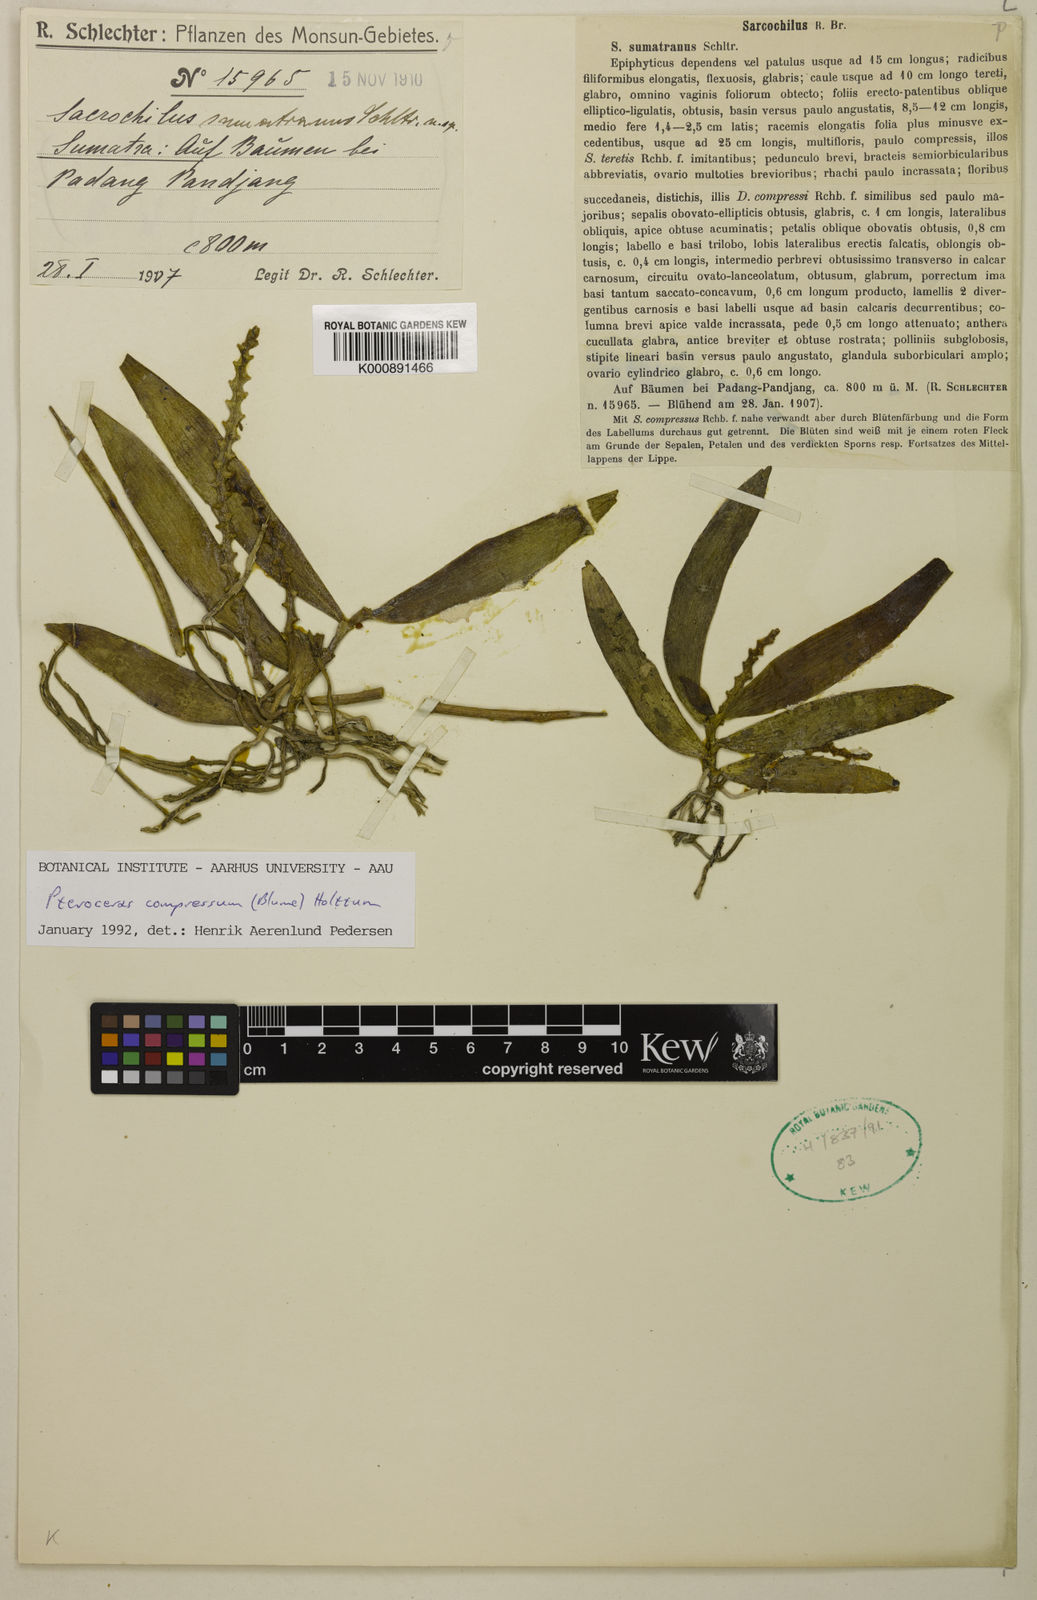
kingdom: Plantae
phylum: Tracheophyta
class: Liliopsida
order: Asparagales
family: Orchidaceae
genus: Pteroceras
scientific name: Pteroceras compressum
